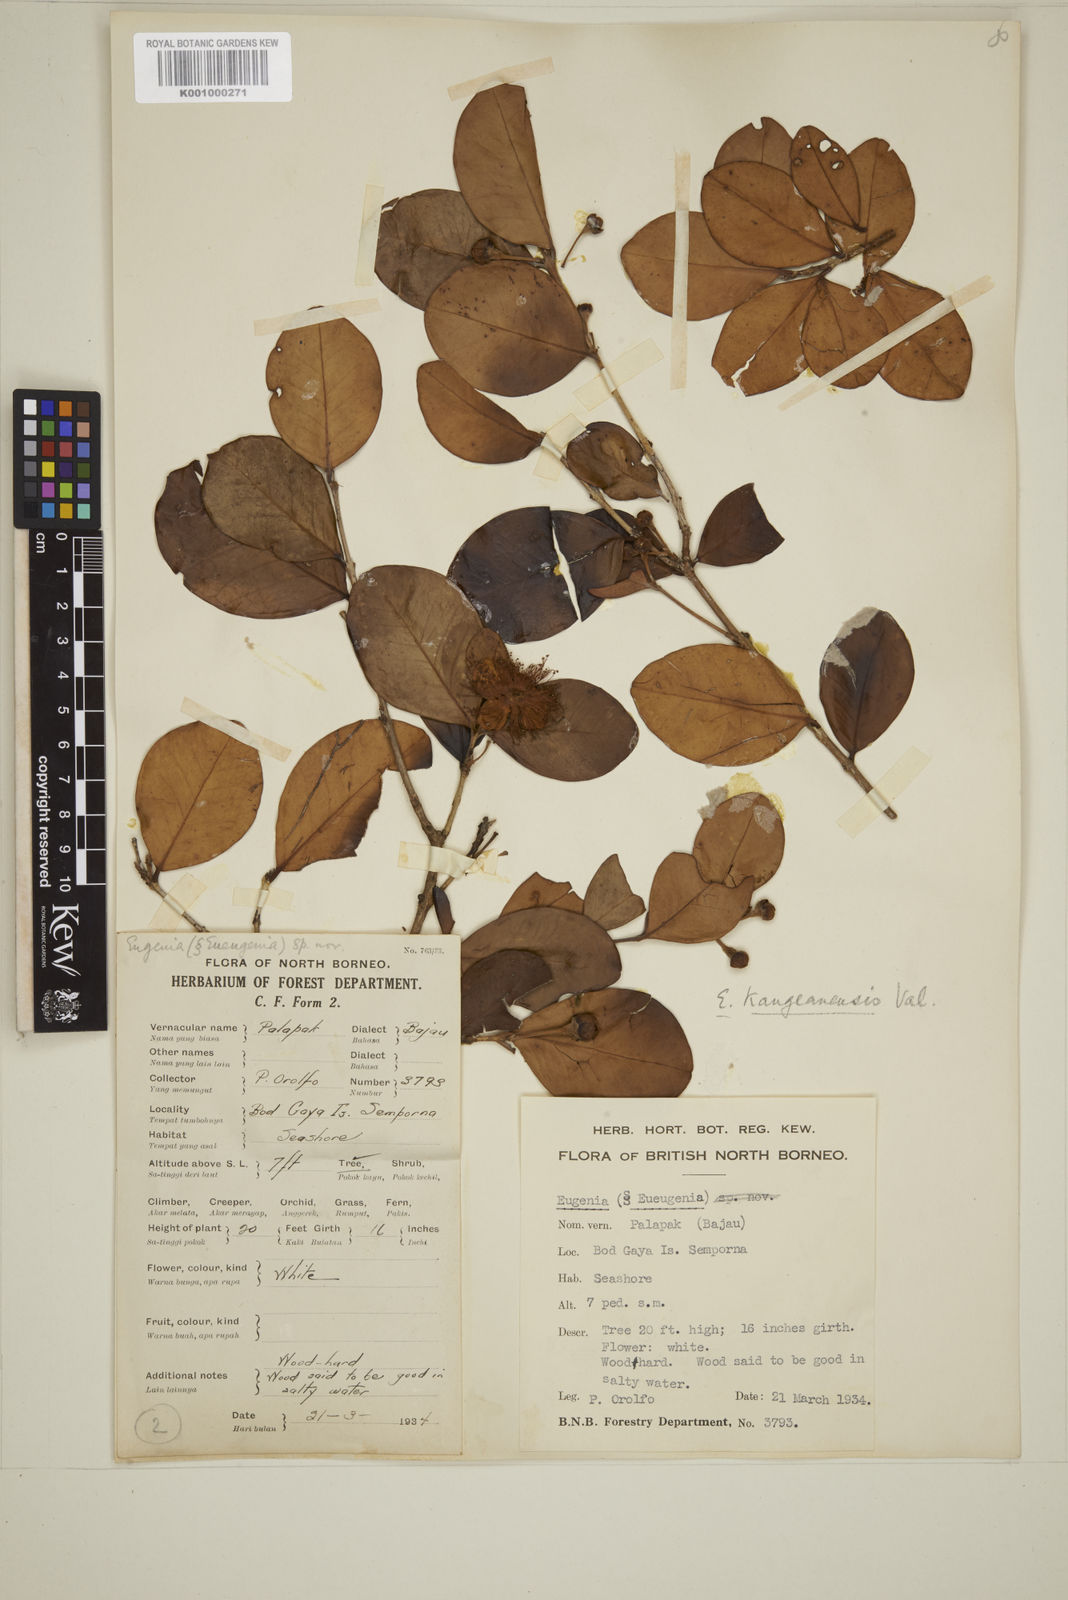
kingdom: Plantae
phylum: Tracheophyta
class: Magnoliopsida
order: Myrtales
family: Myrtaceae
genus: Eugenia
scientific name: Eugenia reinwardtiana
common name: Cedar bay-cherry
